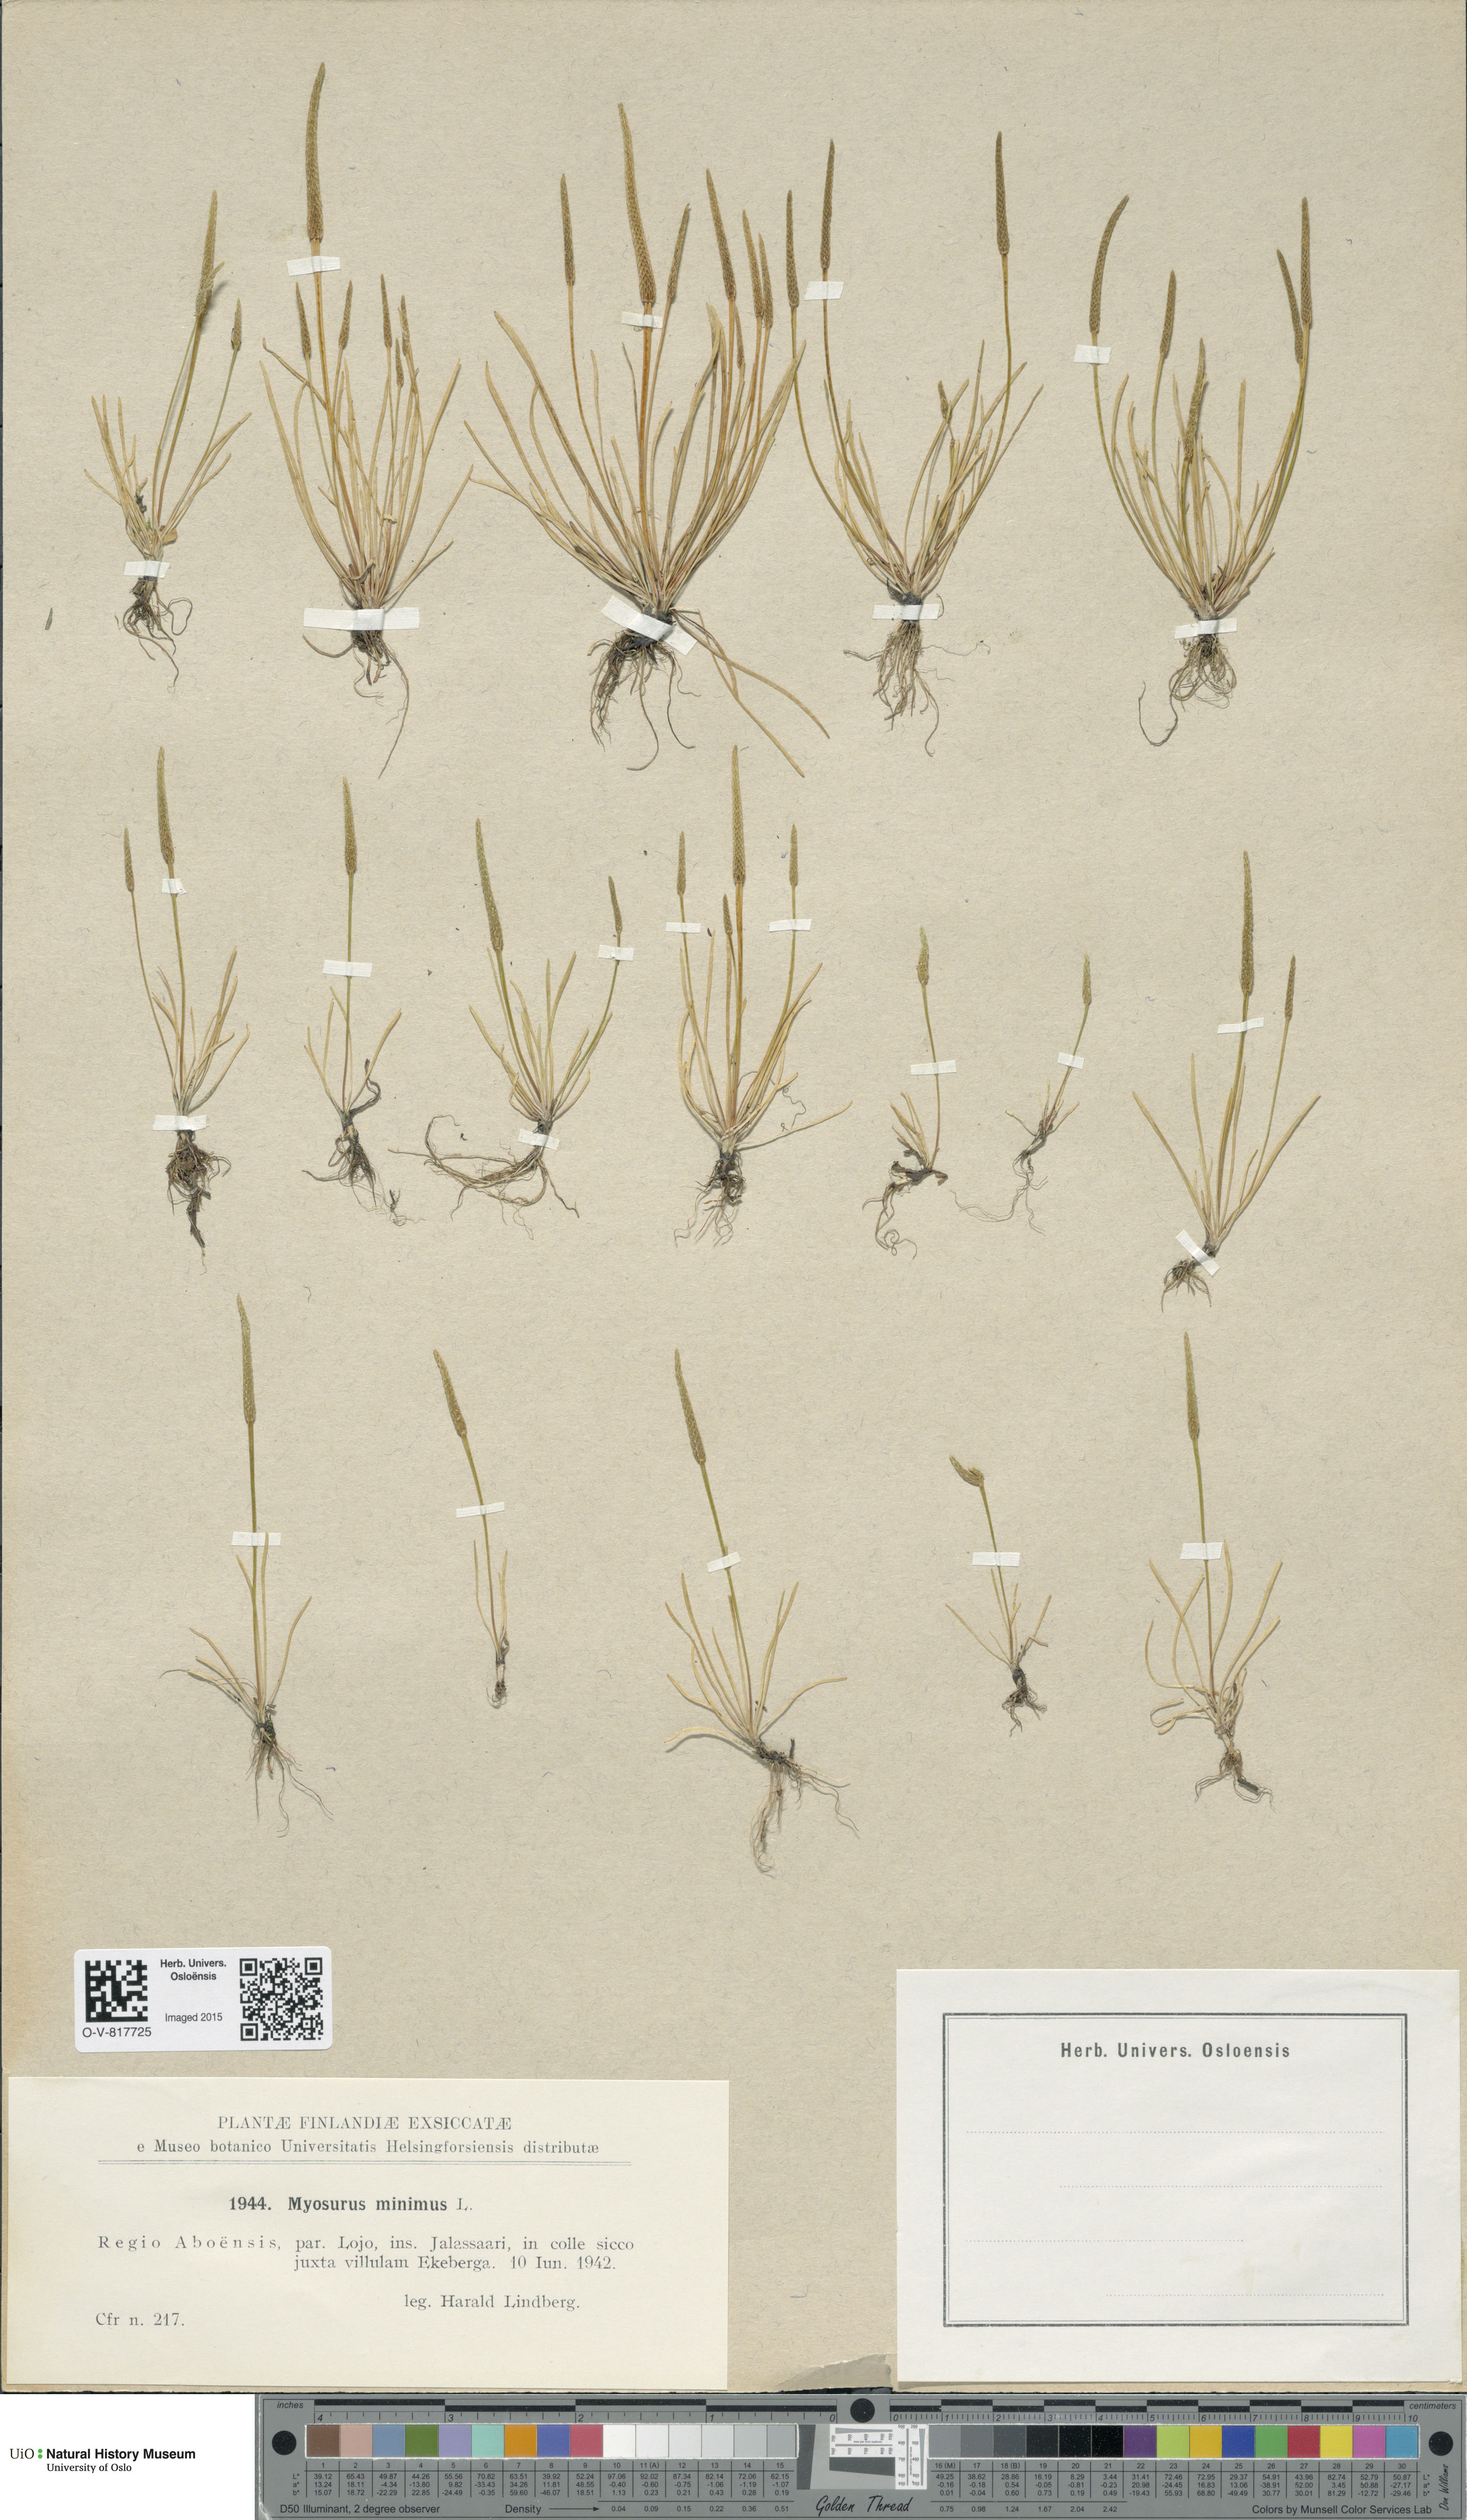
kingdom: Plantae
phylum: Tracheophyta
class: Magnoliopsida
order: Ranunculales
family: Ranunculaceae
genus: Myosurus
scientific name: Myosurus minimus
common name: Mousetail
